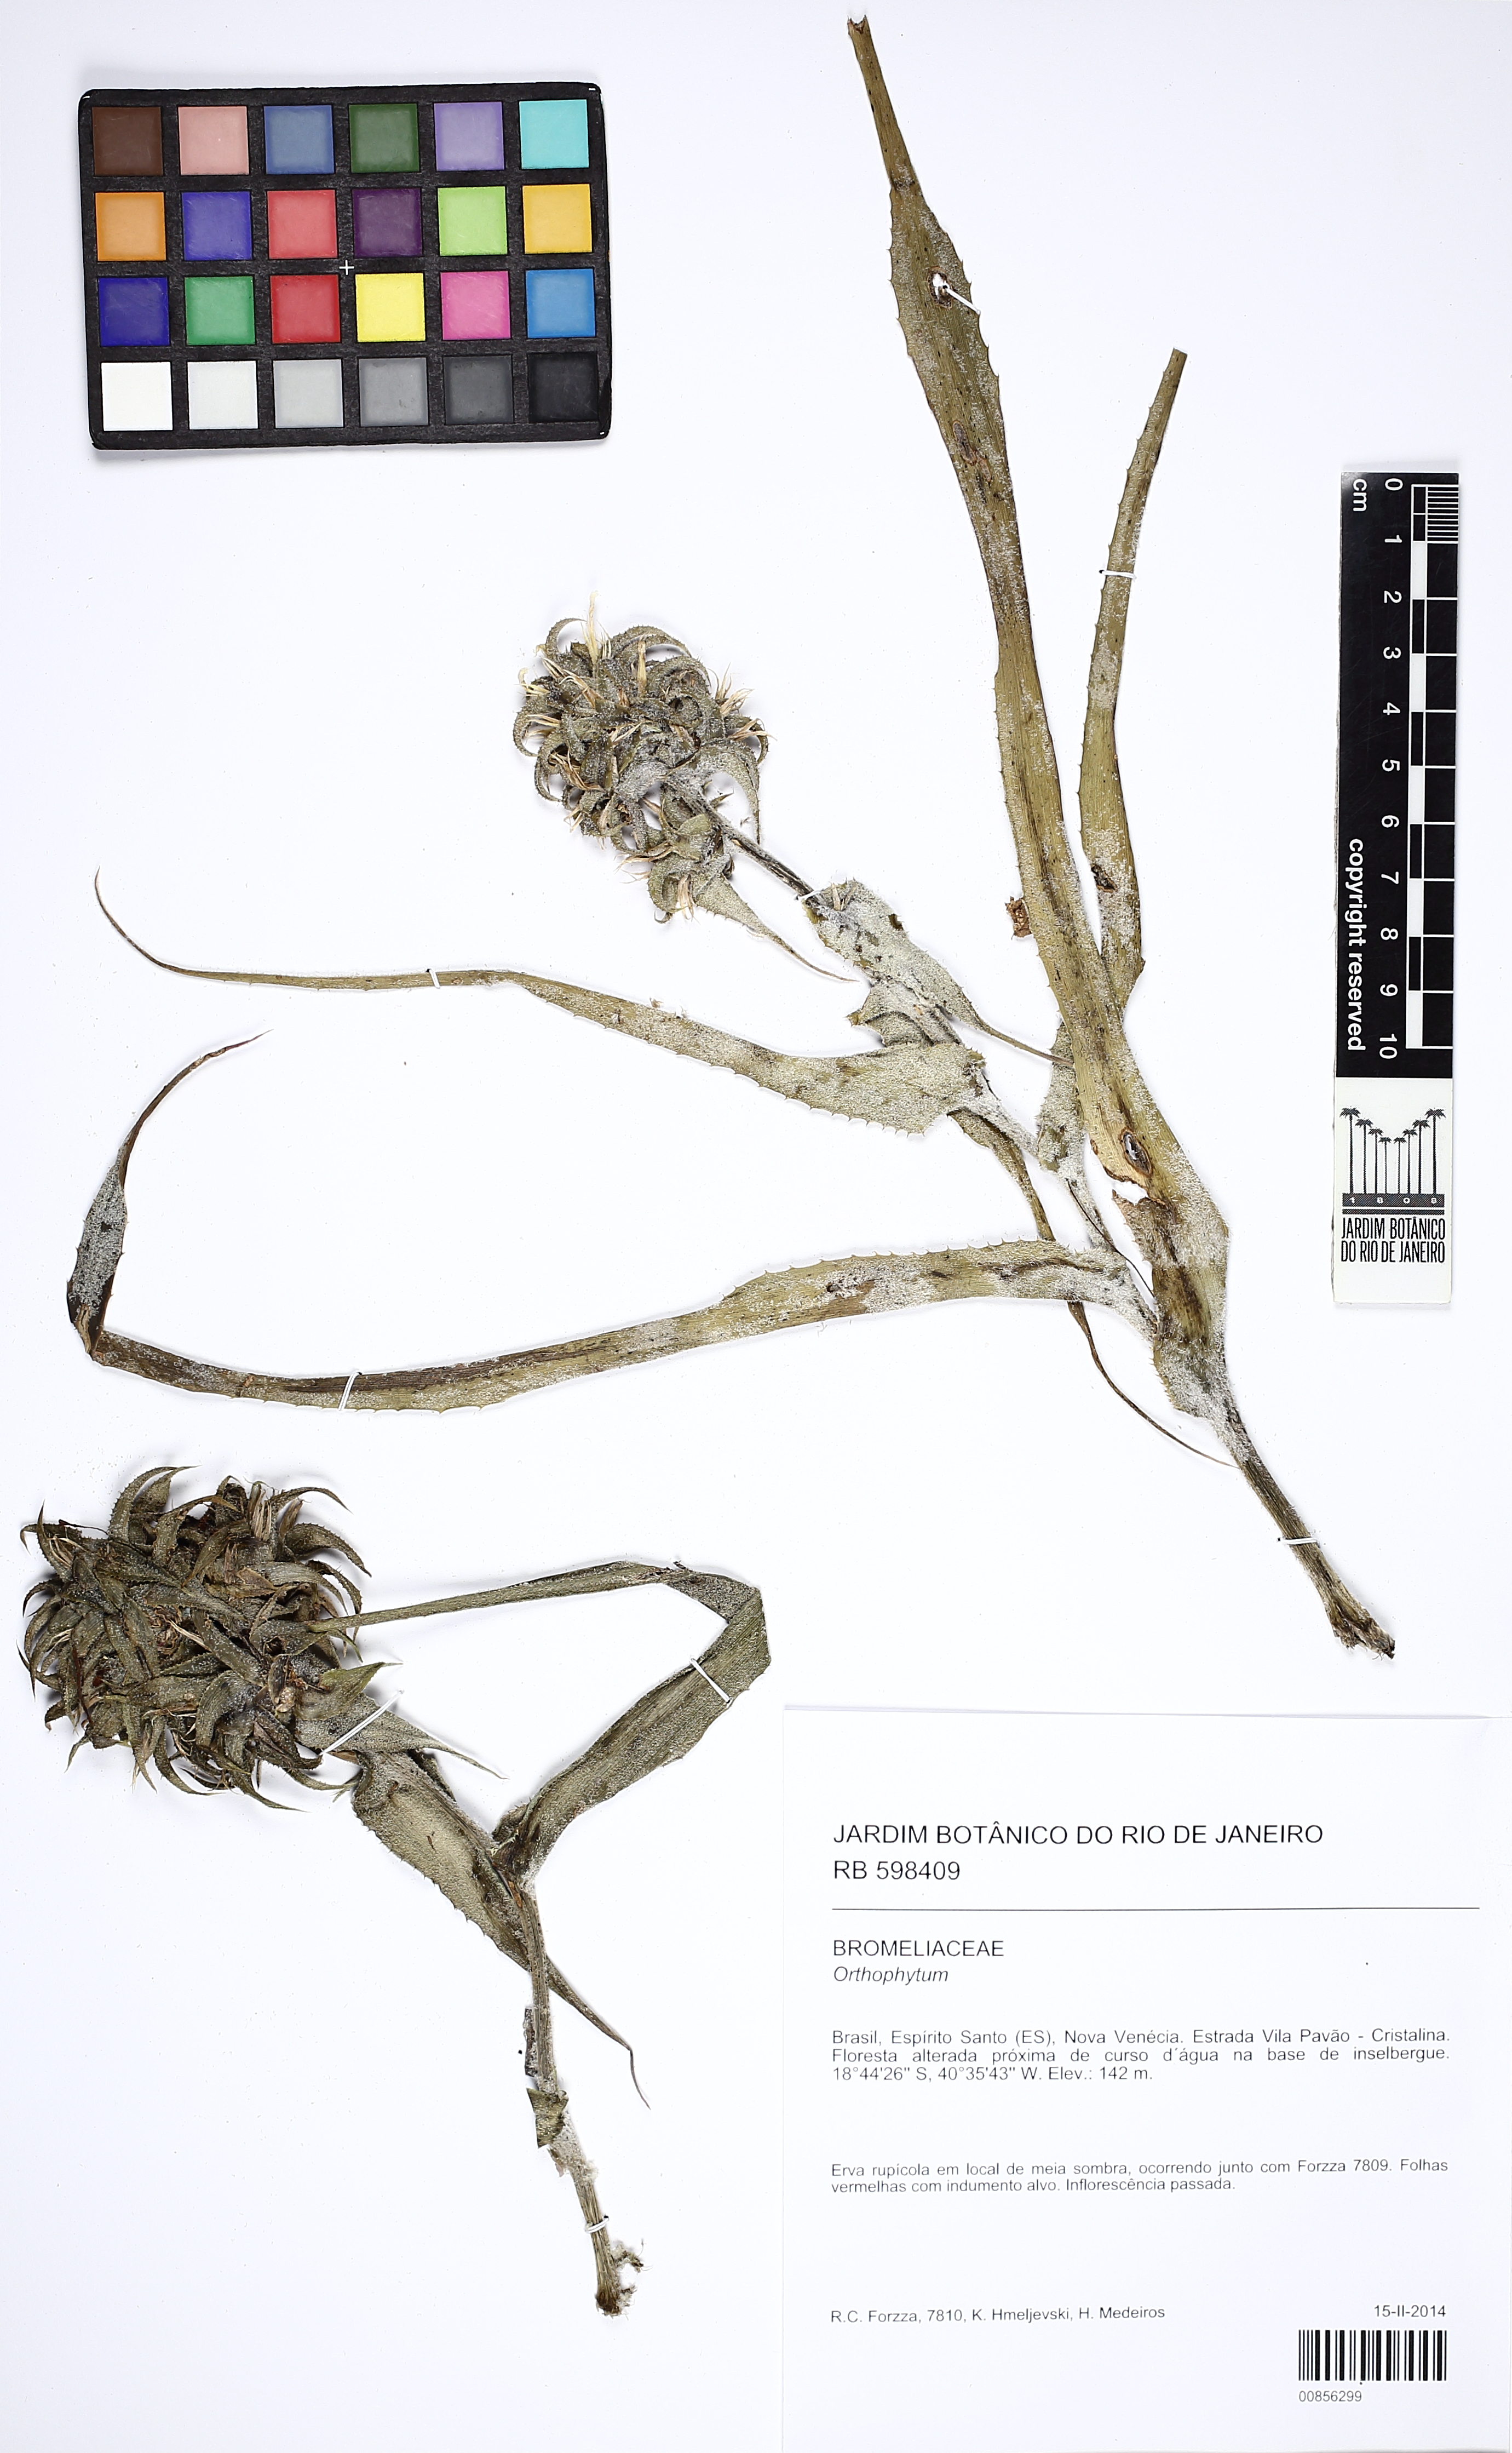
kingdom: Plantae
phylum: Tracheophyta
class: Liliopsida
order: Poales
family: Bromeliaceae
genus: Orthophytum
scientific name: Orthophytum
